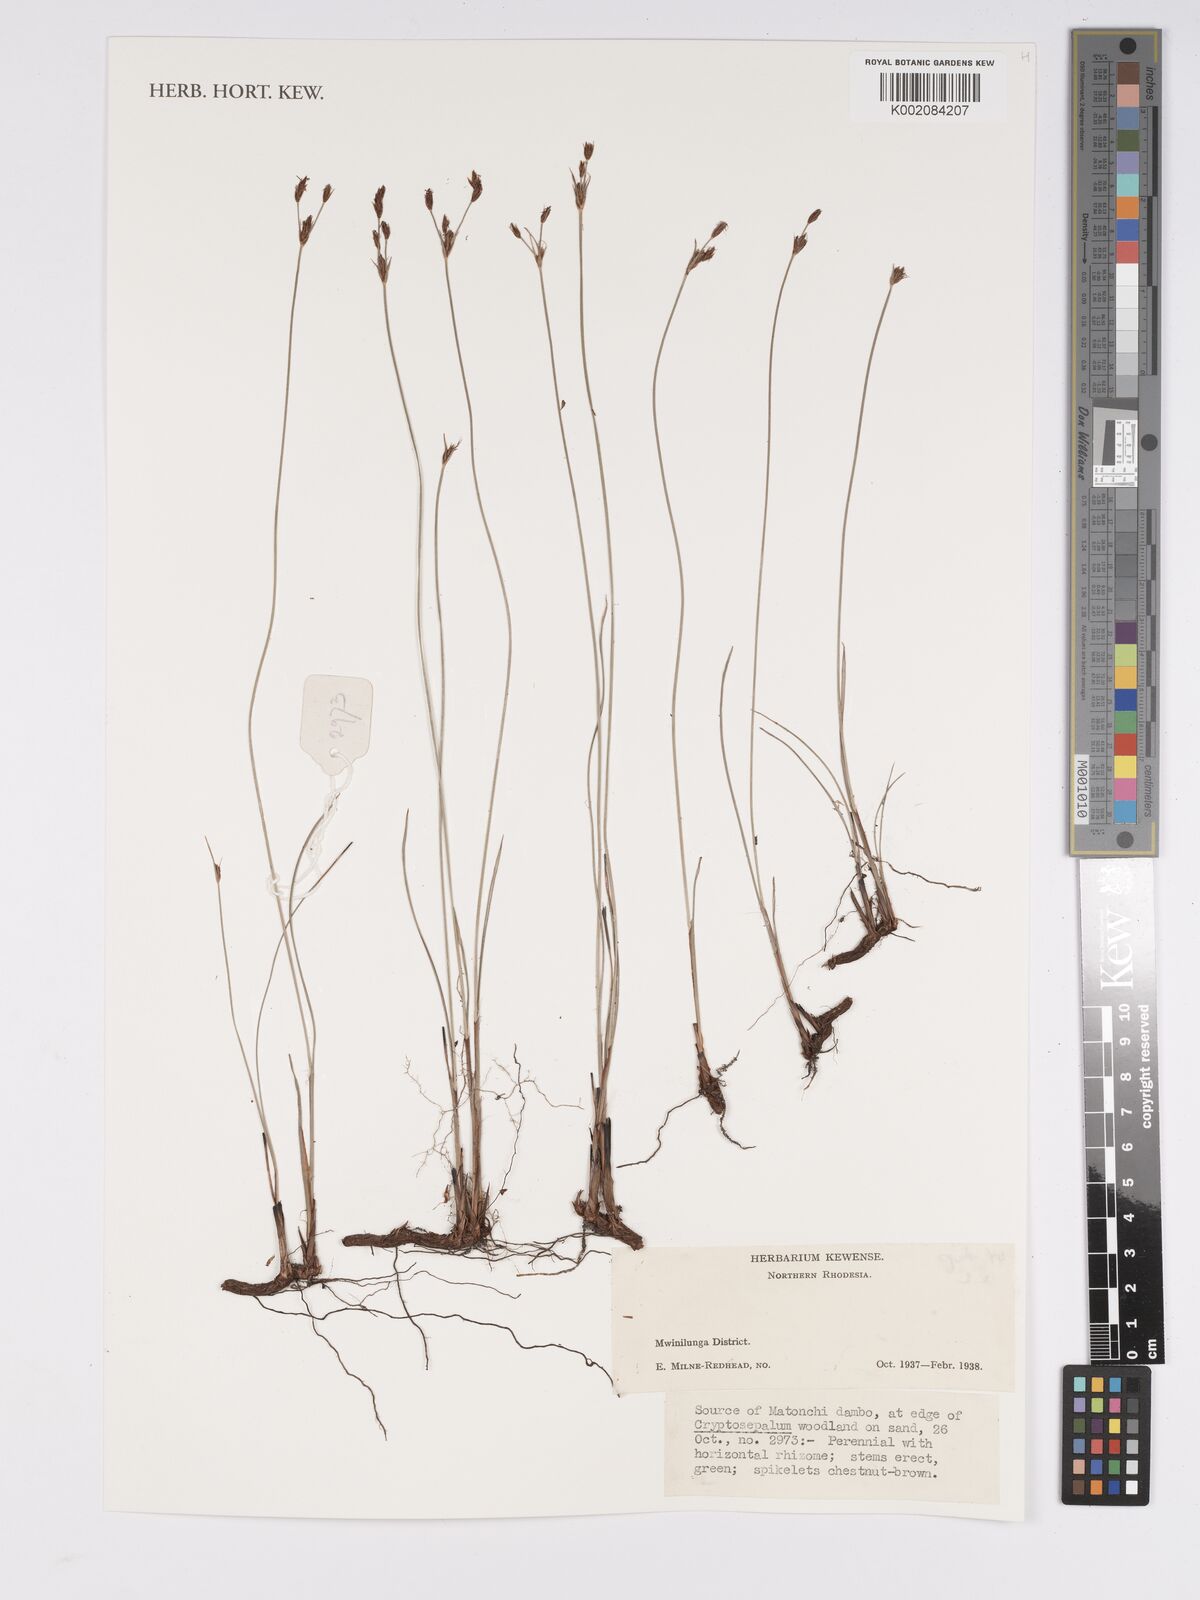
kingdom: Plantae
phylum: Tracheophyta
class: Liliopsida
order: Poales
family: Cyperaceae
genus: Bulbostylis
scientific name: Bulbostylis
